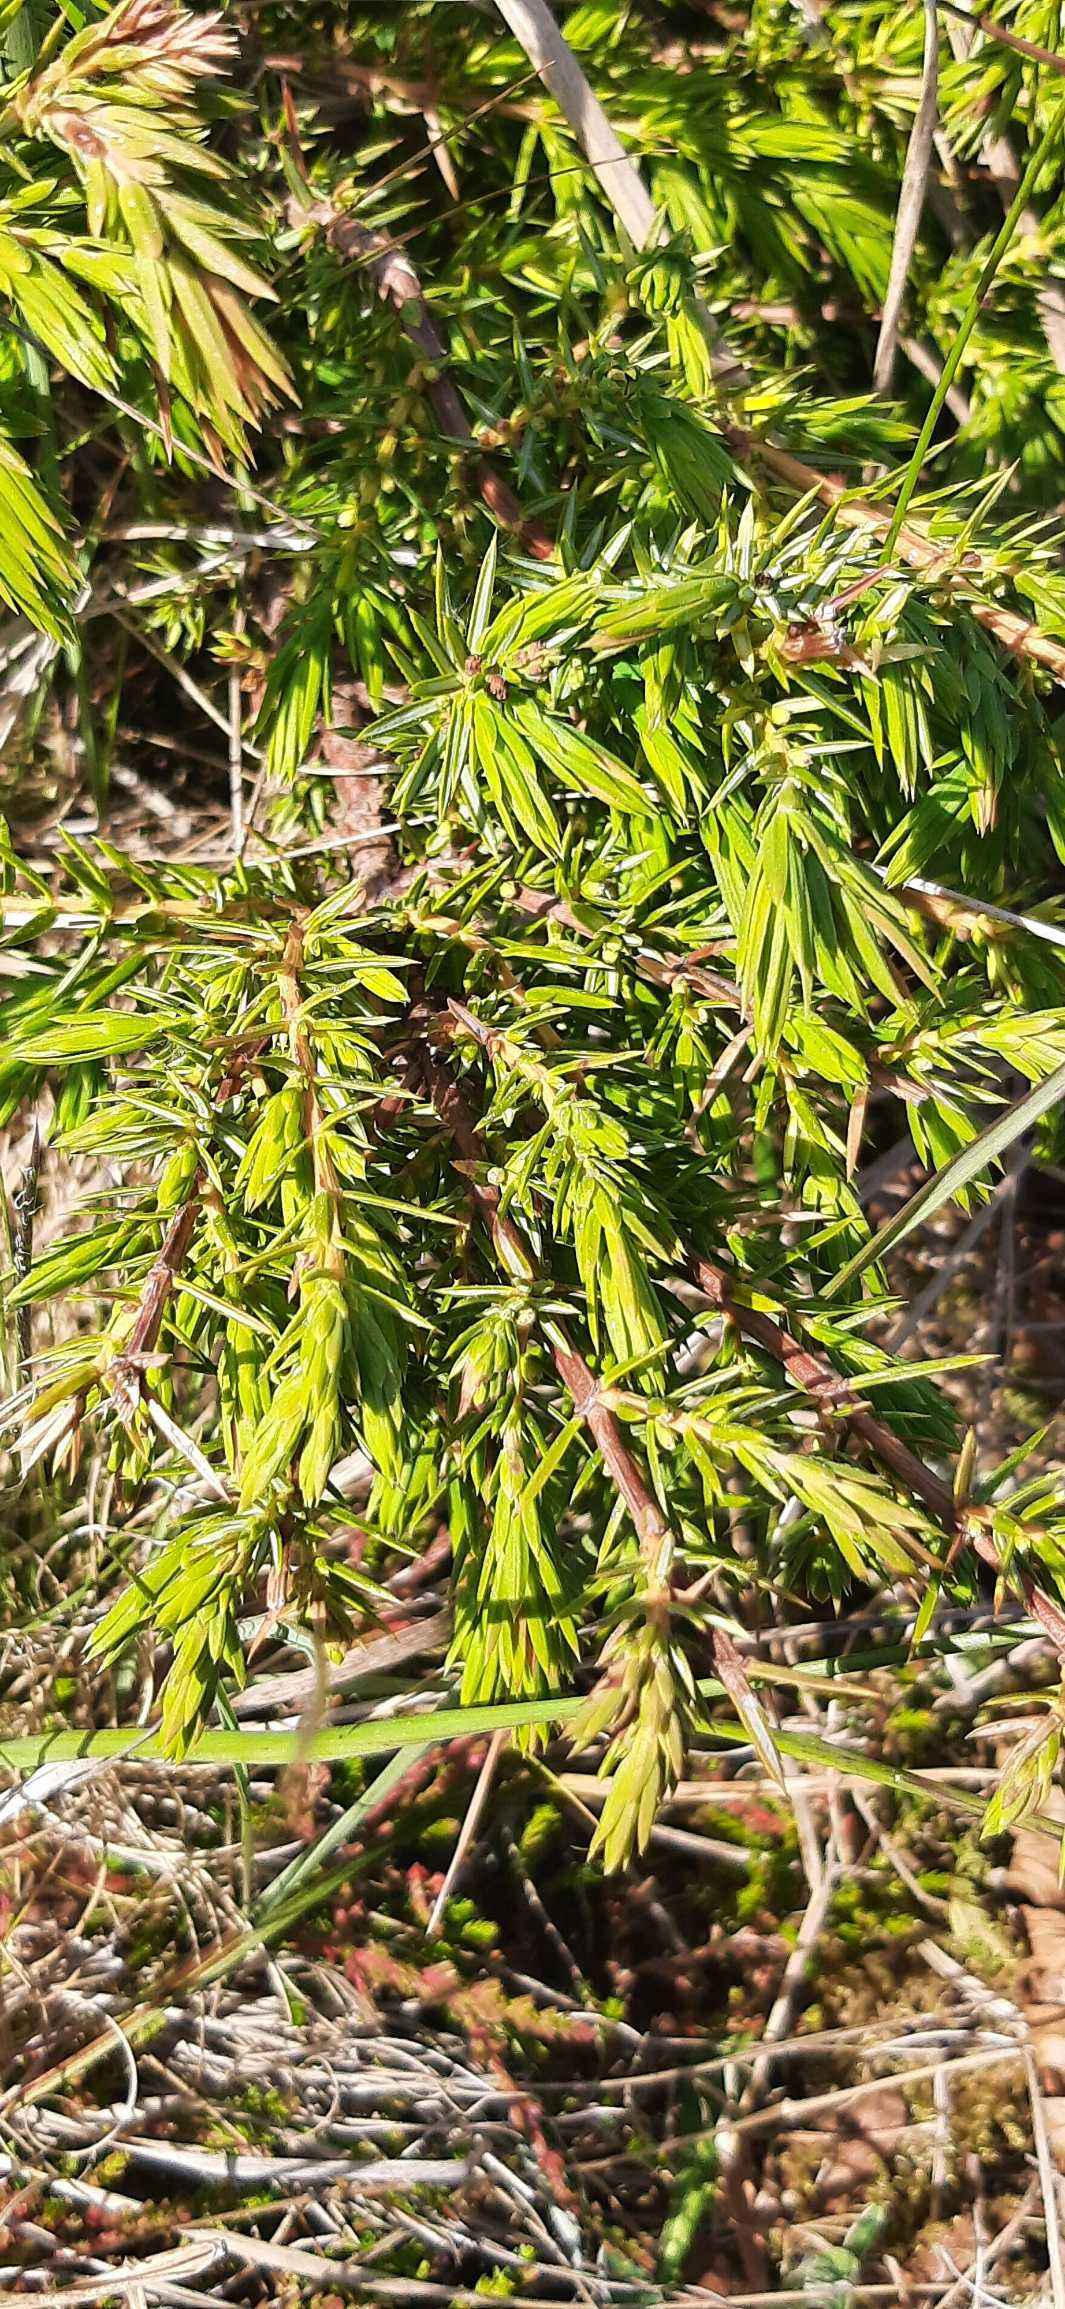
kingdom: Plantae
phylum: Tracheophyta
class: Pinopsida
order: Pinales
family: Cupressaceae
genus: Juniperus
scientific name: Juniperus communis
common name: Almindelig ene
